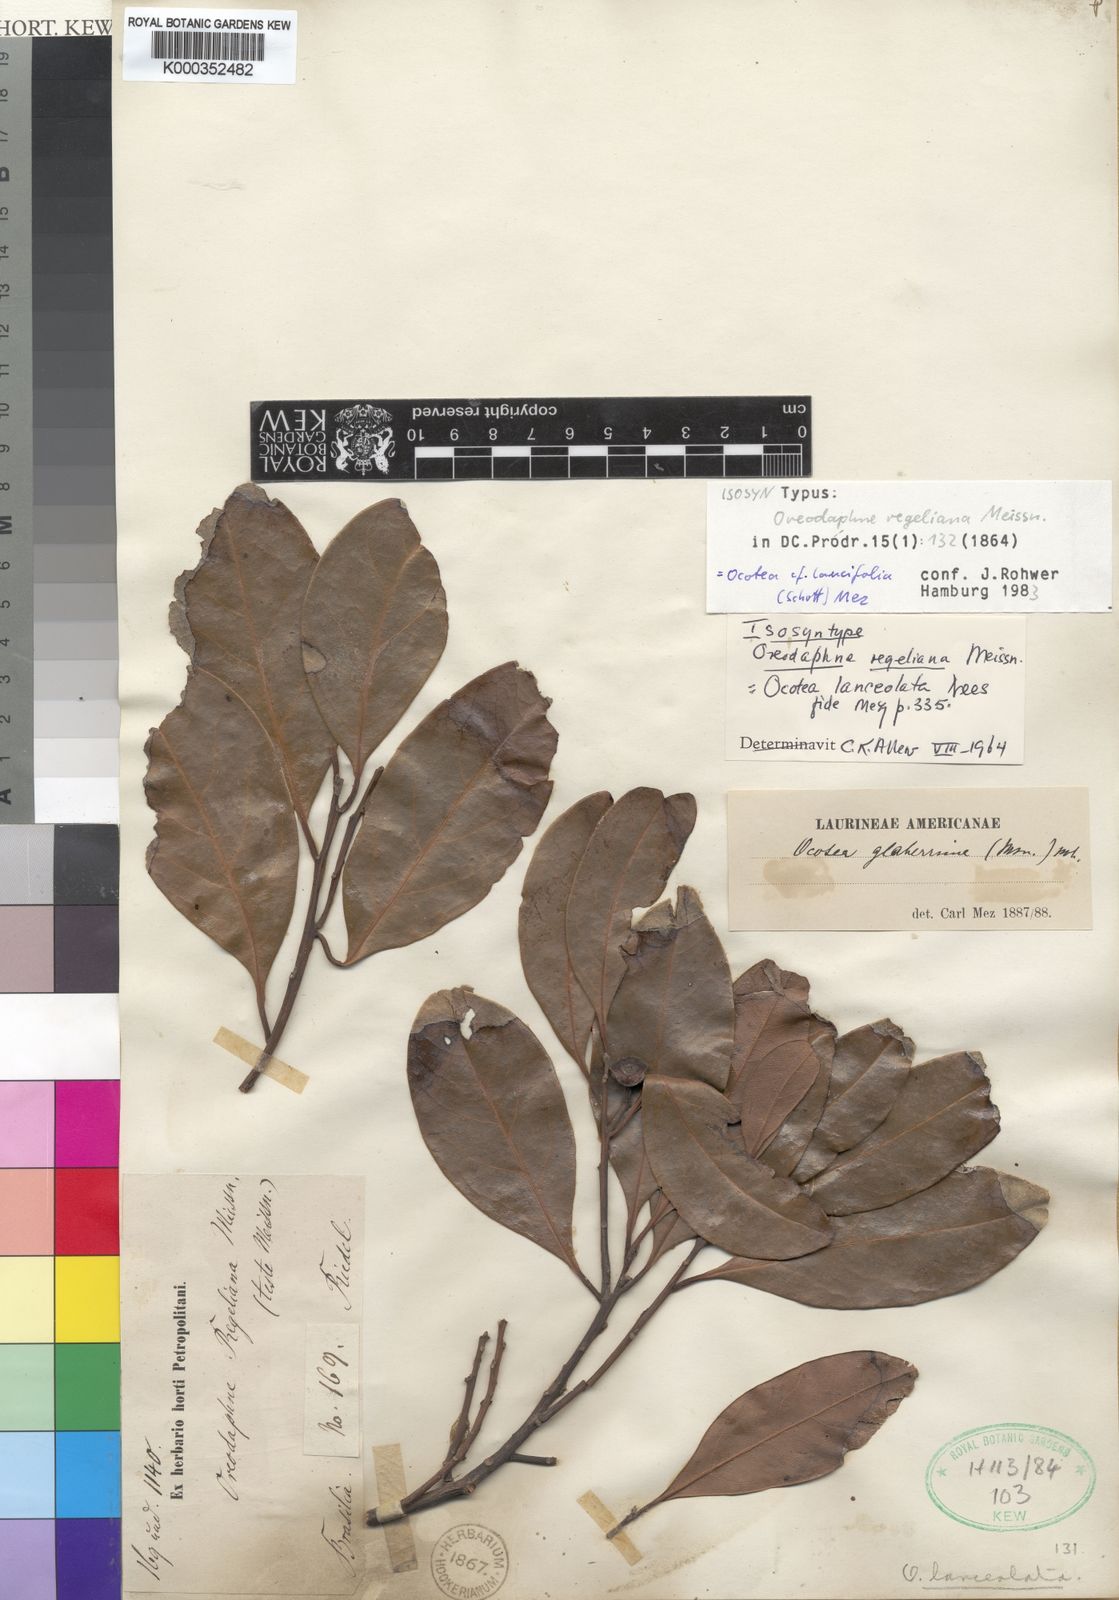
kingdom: Plantae
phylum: Tracheophyta
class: Magnoliopsida
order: Laurales
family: Lauraceae
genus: Phoebe
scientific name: Phoebe lanceolata
